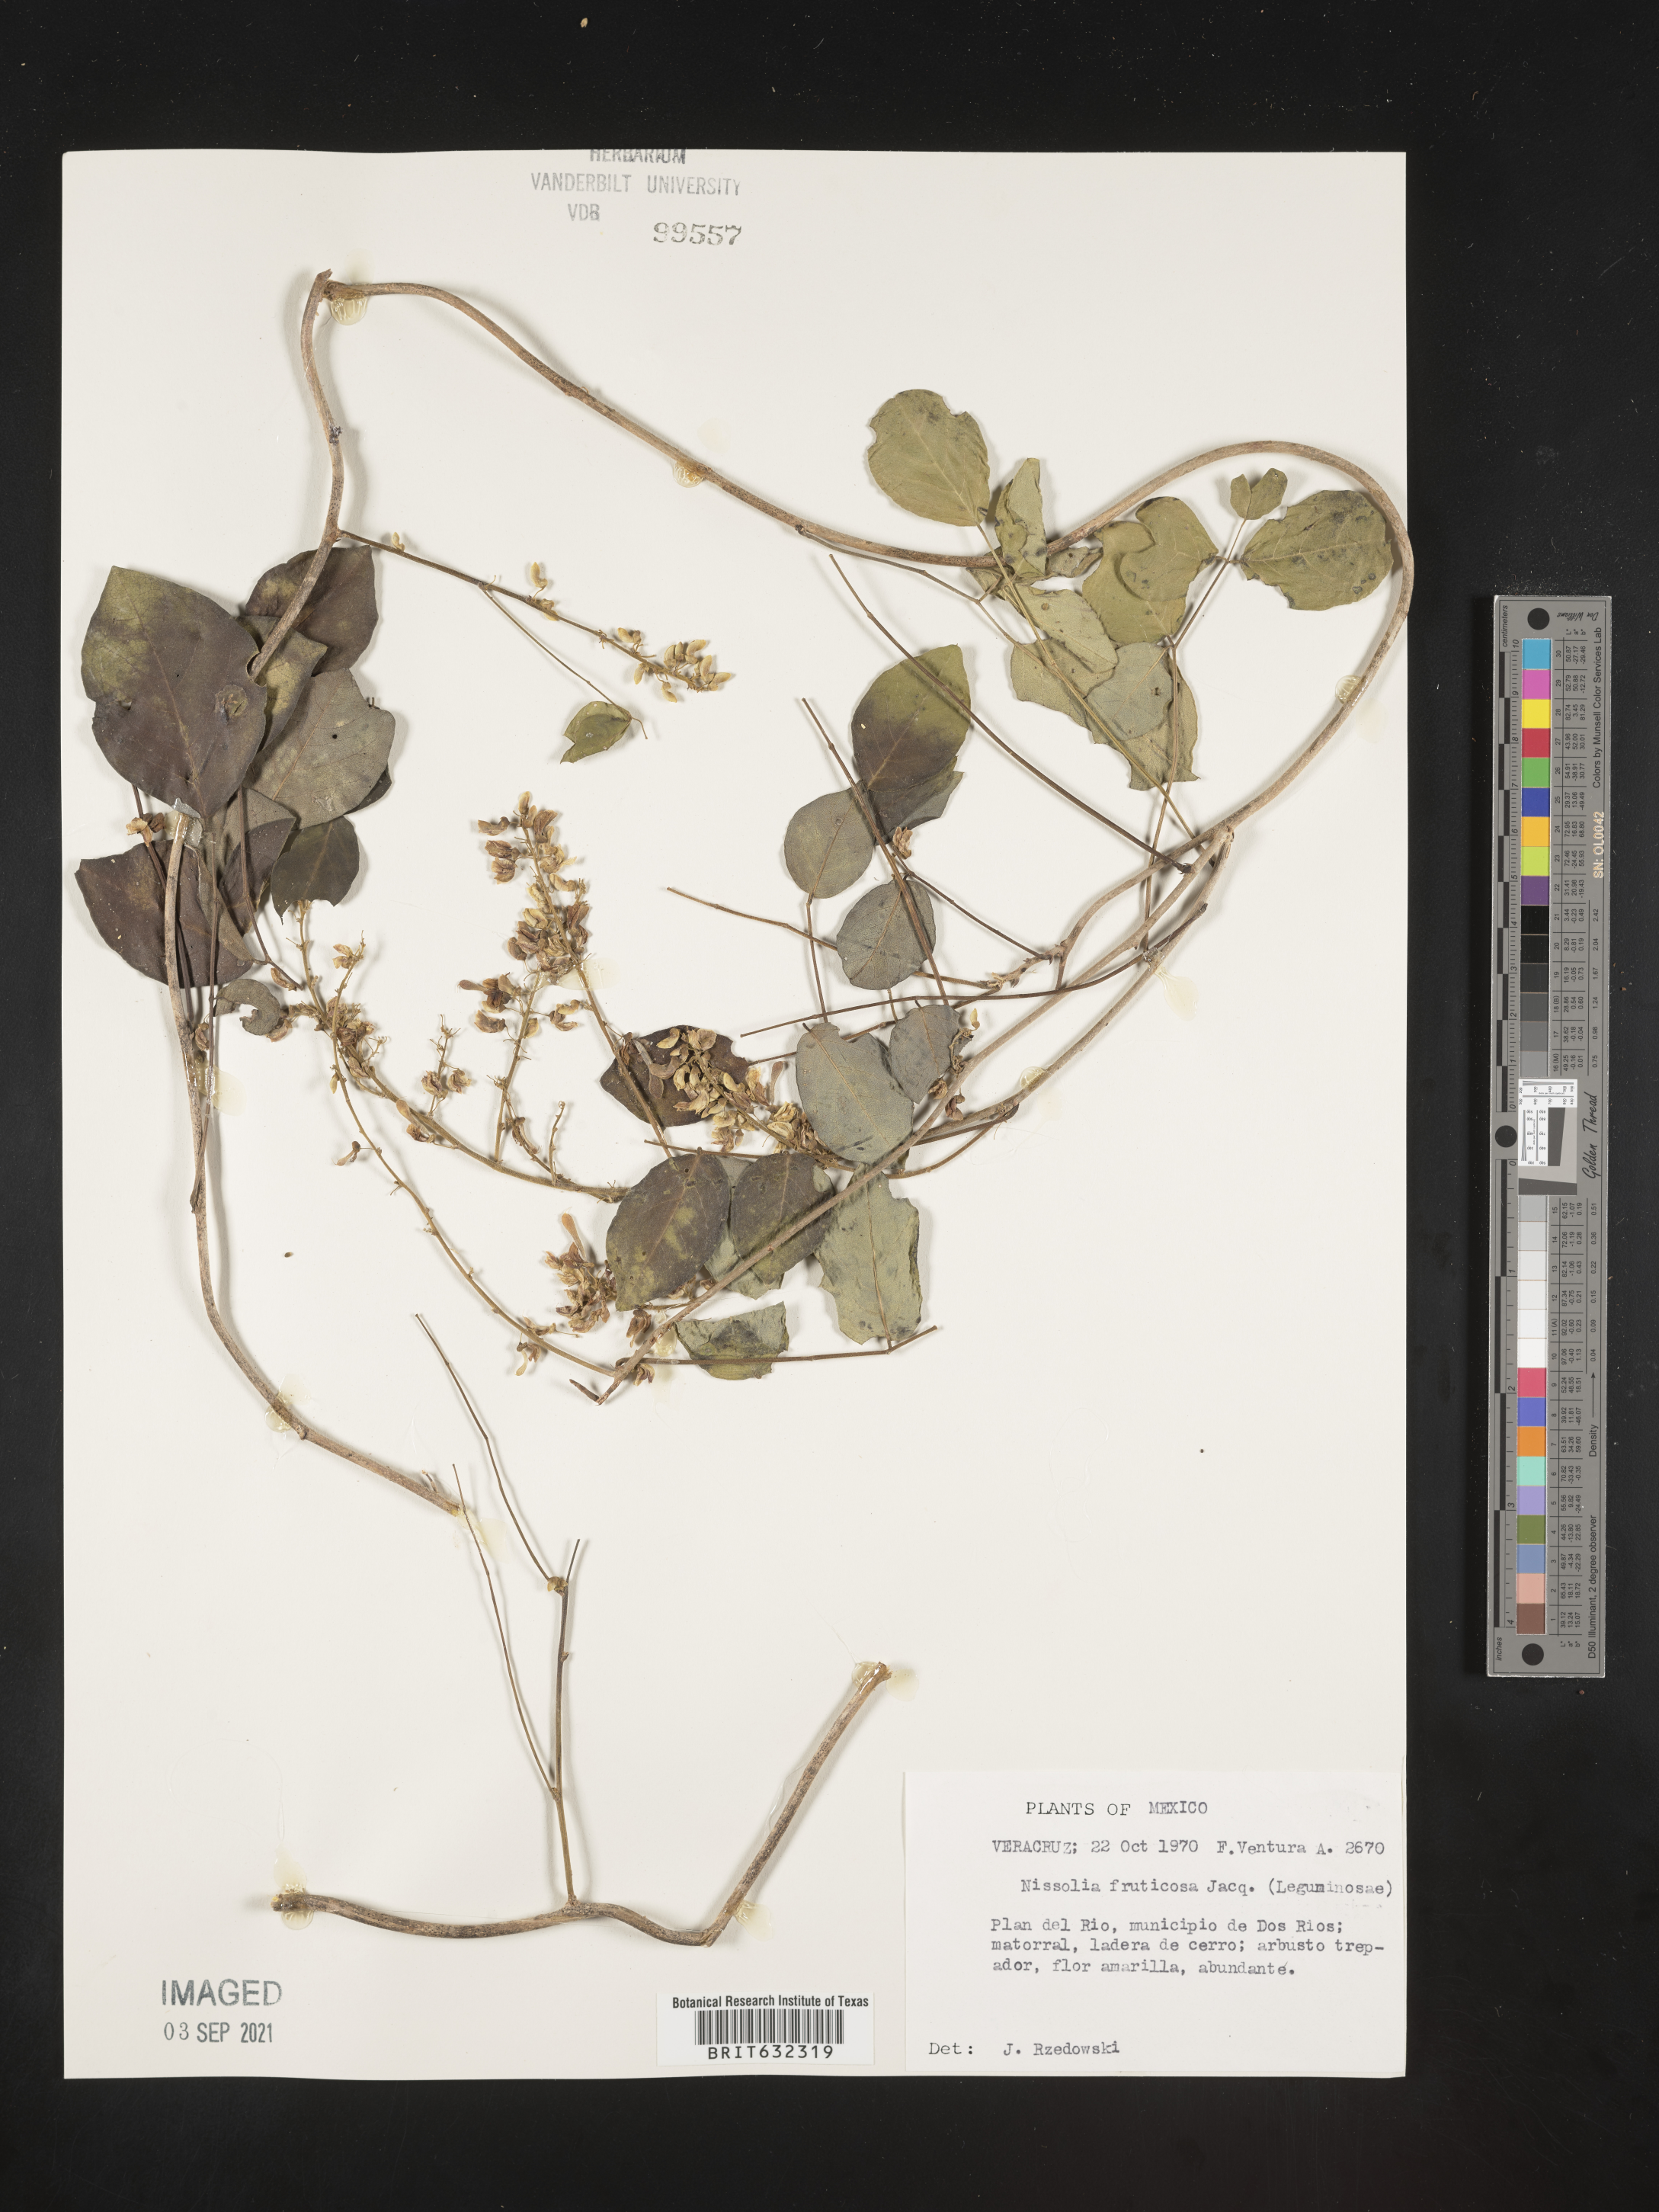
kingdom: Plantae
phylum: Tracheophyta
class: Magnoliopsida
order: Fabales
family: Fabaceae
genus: Nissolia
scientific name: Nissolia
